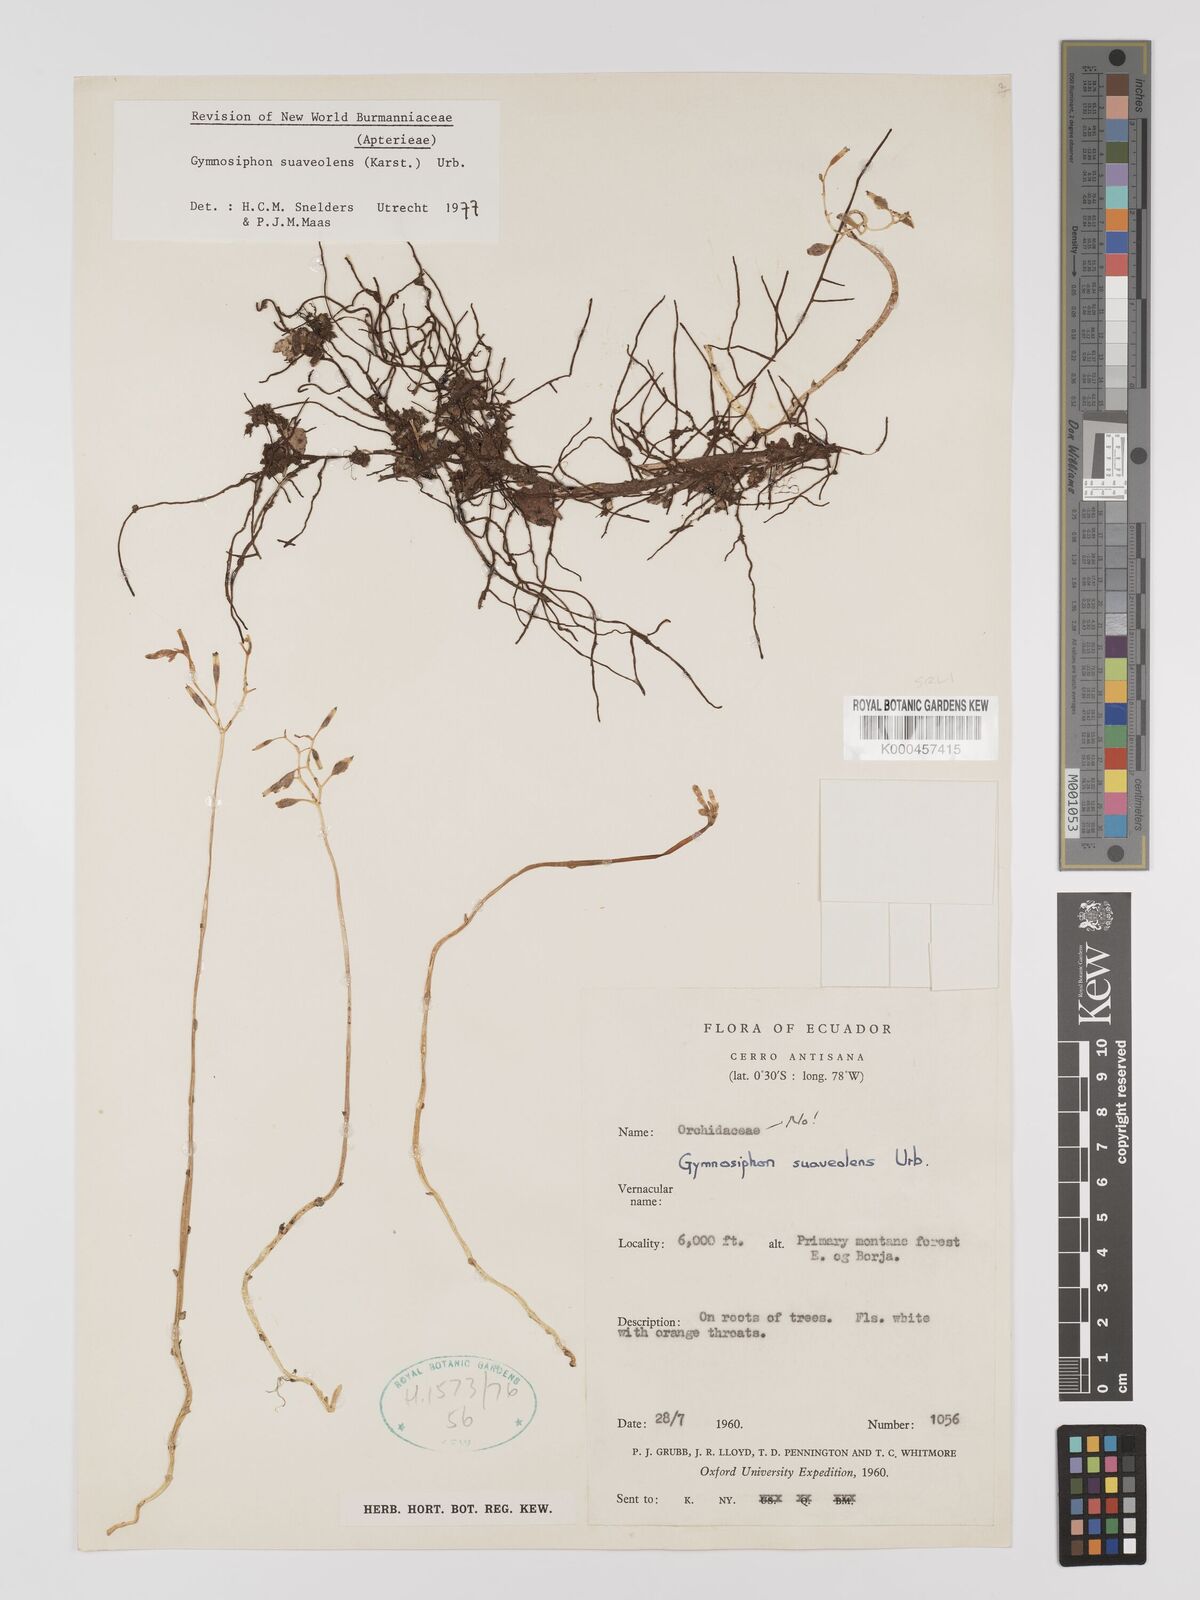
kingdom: Plantae
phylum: Tracheophyta
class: Liliopsida
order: Dioscoreales
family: Burmanniaceae
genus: Gymnosiphon
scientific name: Gymnosiphon suaveolens
